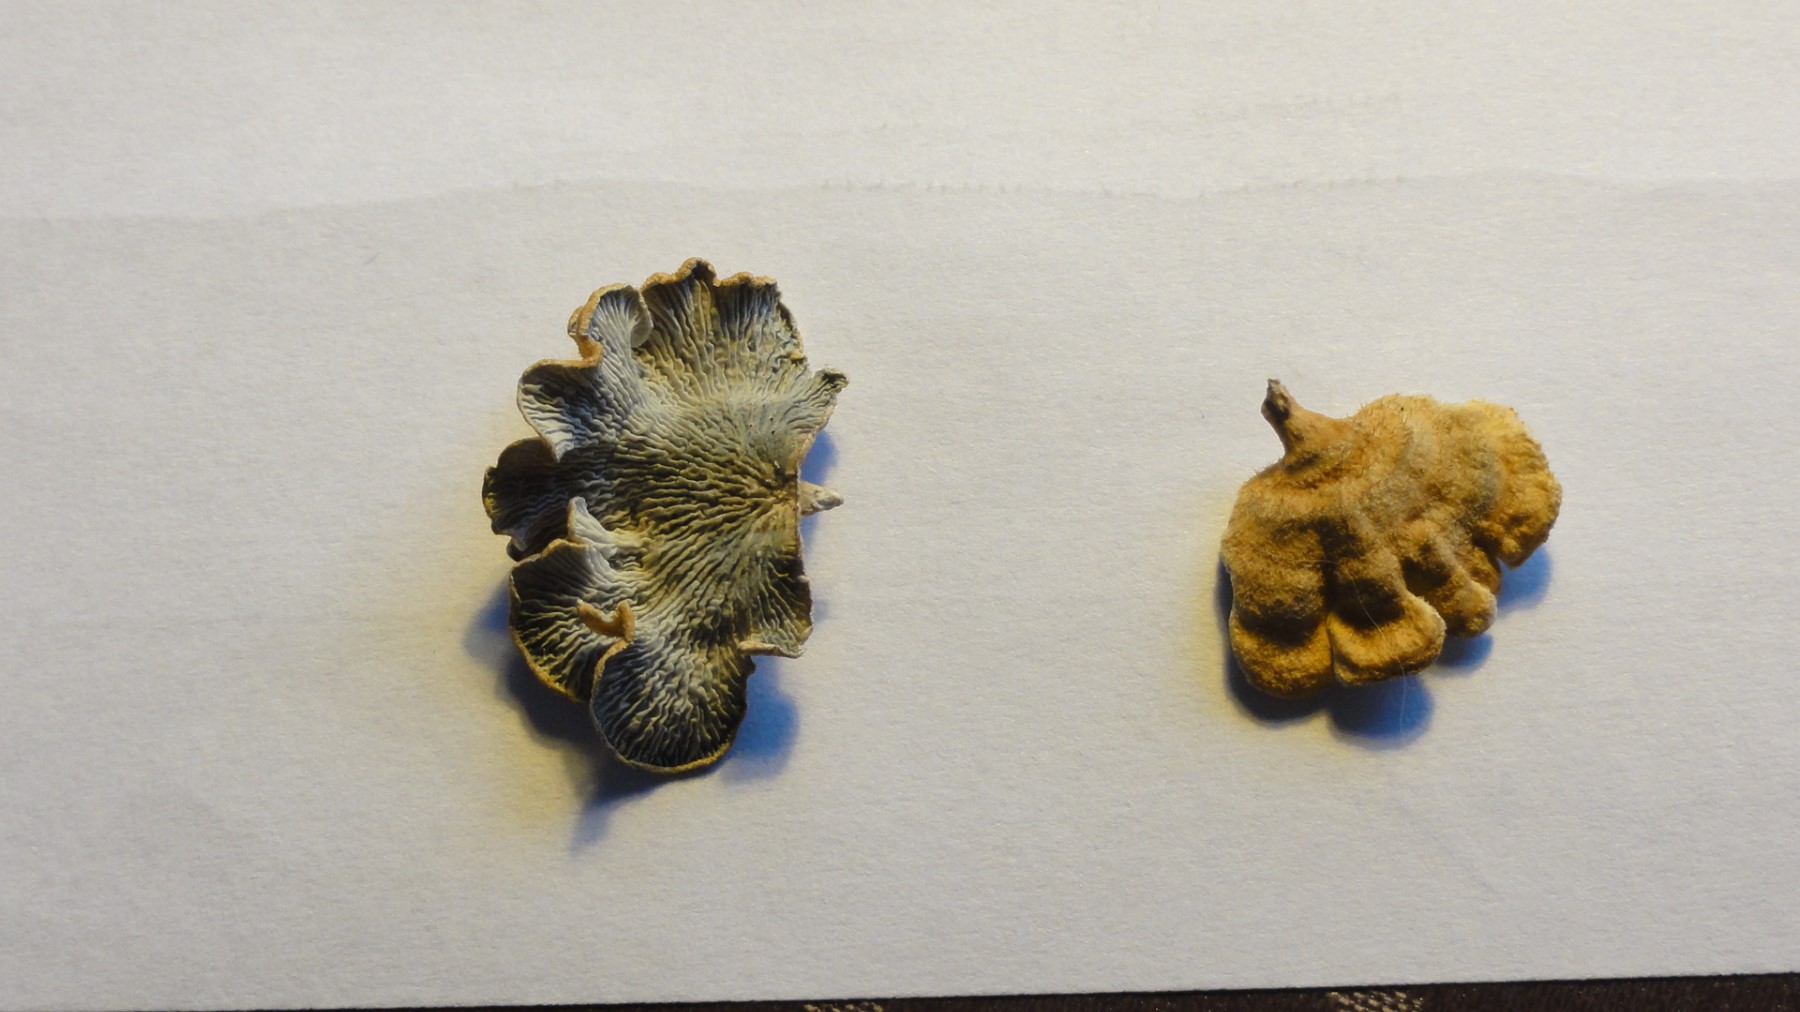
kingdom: Fungi
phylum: Basidiomycota
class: Agaricomycetes
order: Amylocorticiales
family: Amylocorticiaceae
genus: Plicaturopsis
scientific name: Plicaturopsis crispa
